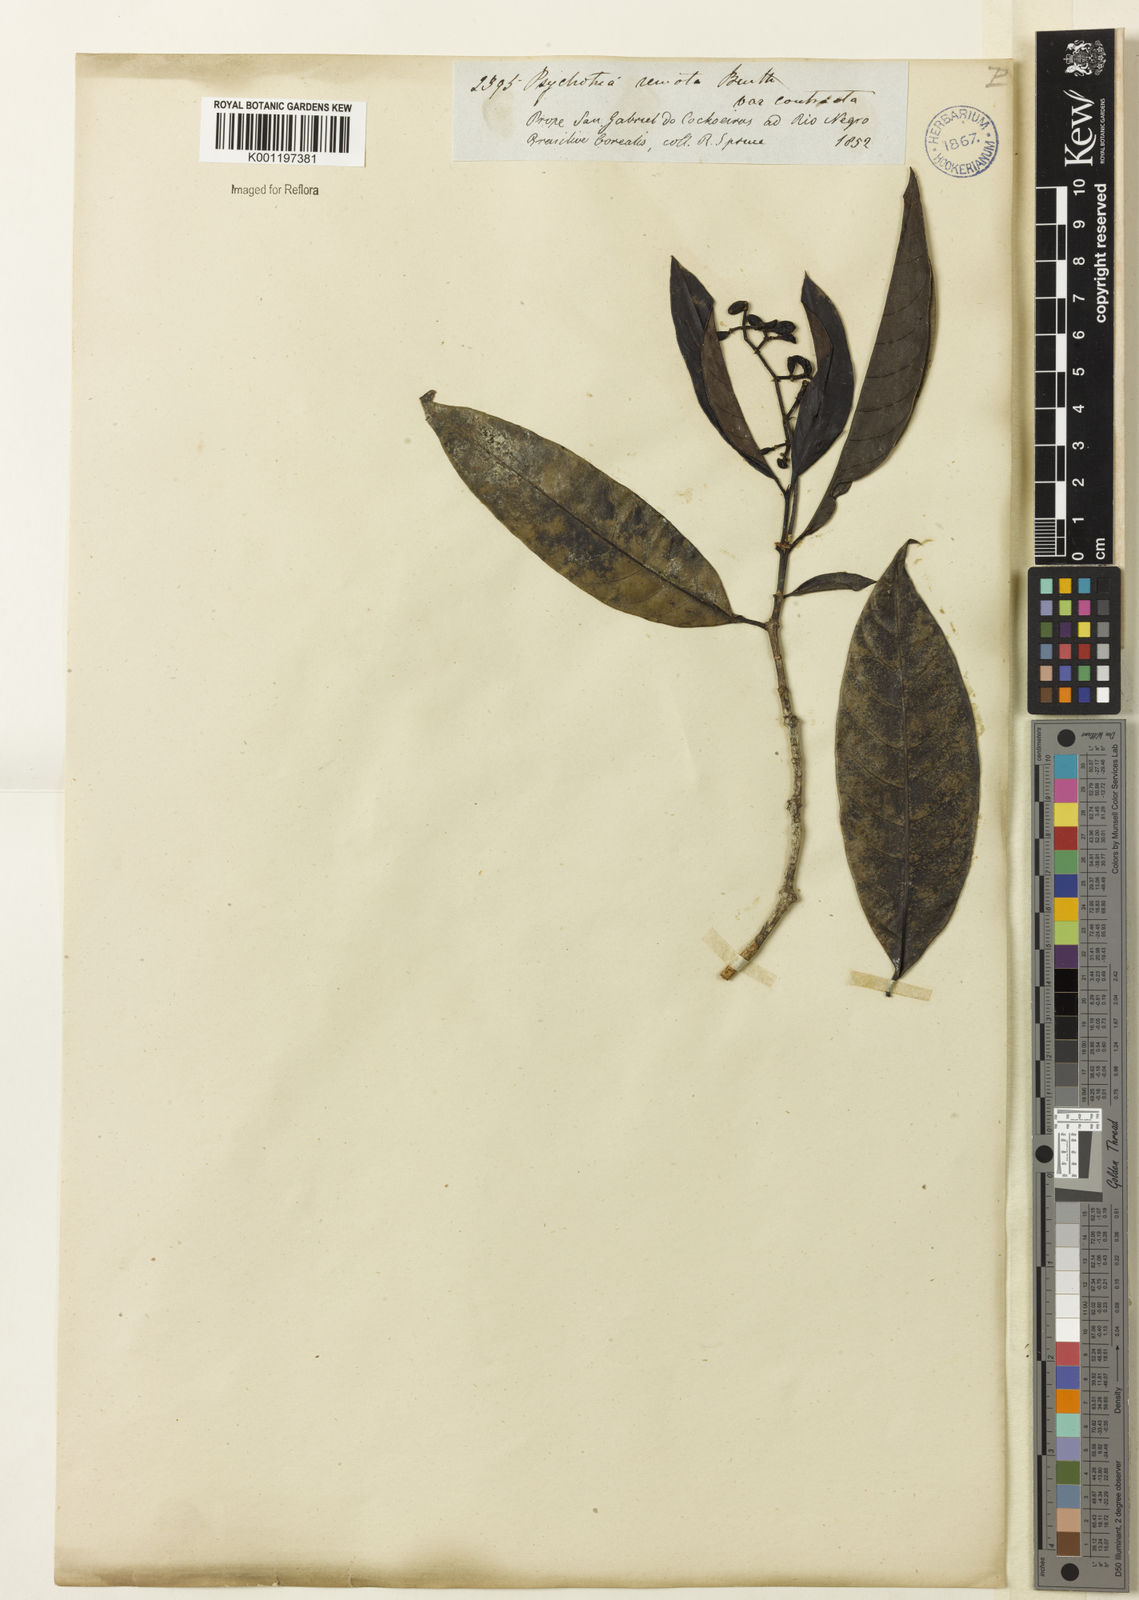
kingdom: Plantae
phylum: Tracheophyta
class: Magnoliopsida
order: Gentianales
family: Rubiaceae
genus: Psychotria
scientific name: Psychotria remota
